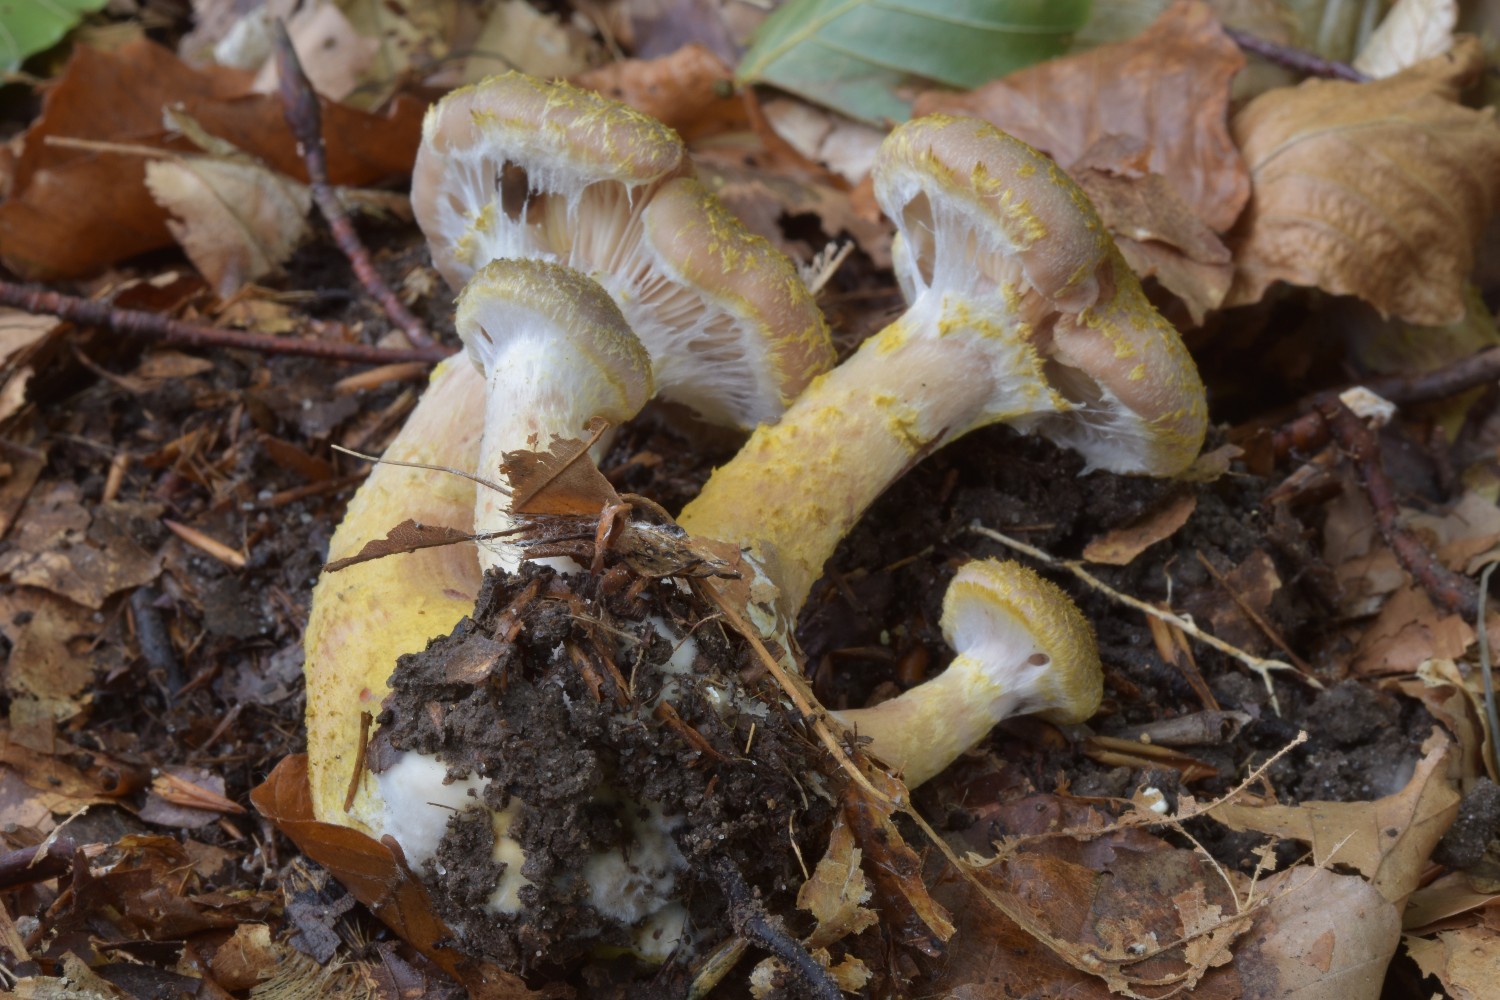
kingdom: Fungi
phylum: Basidiomycota
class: Agaricomycetes
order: Agaricales
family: Physalacriaceae
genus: Armillaria
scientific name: Armillaria lutea
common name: køllestokket honningsvamp
